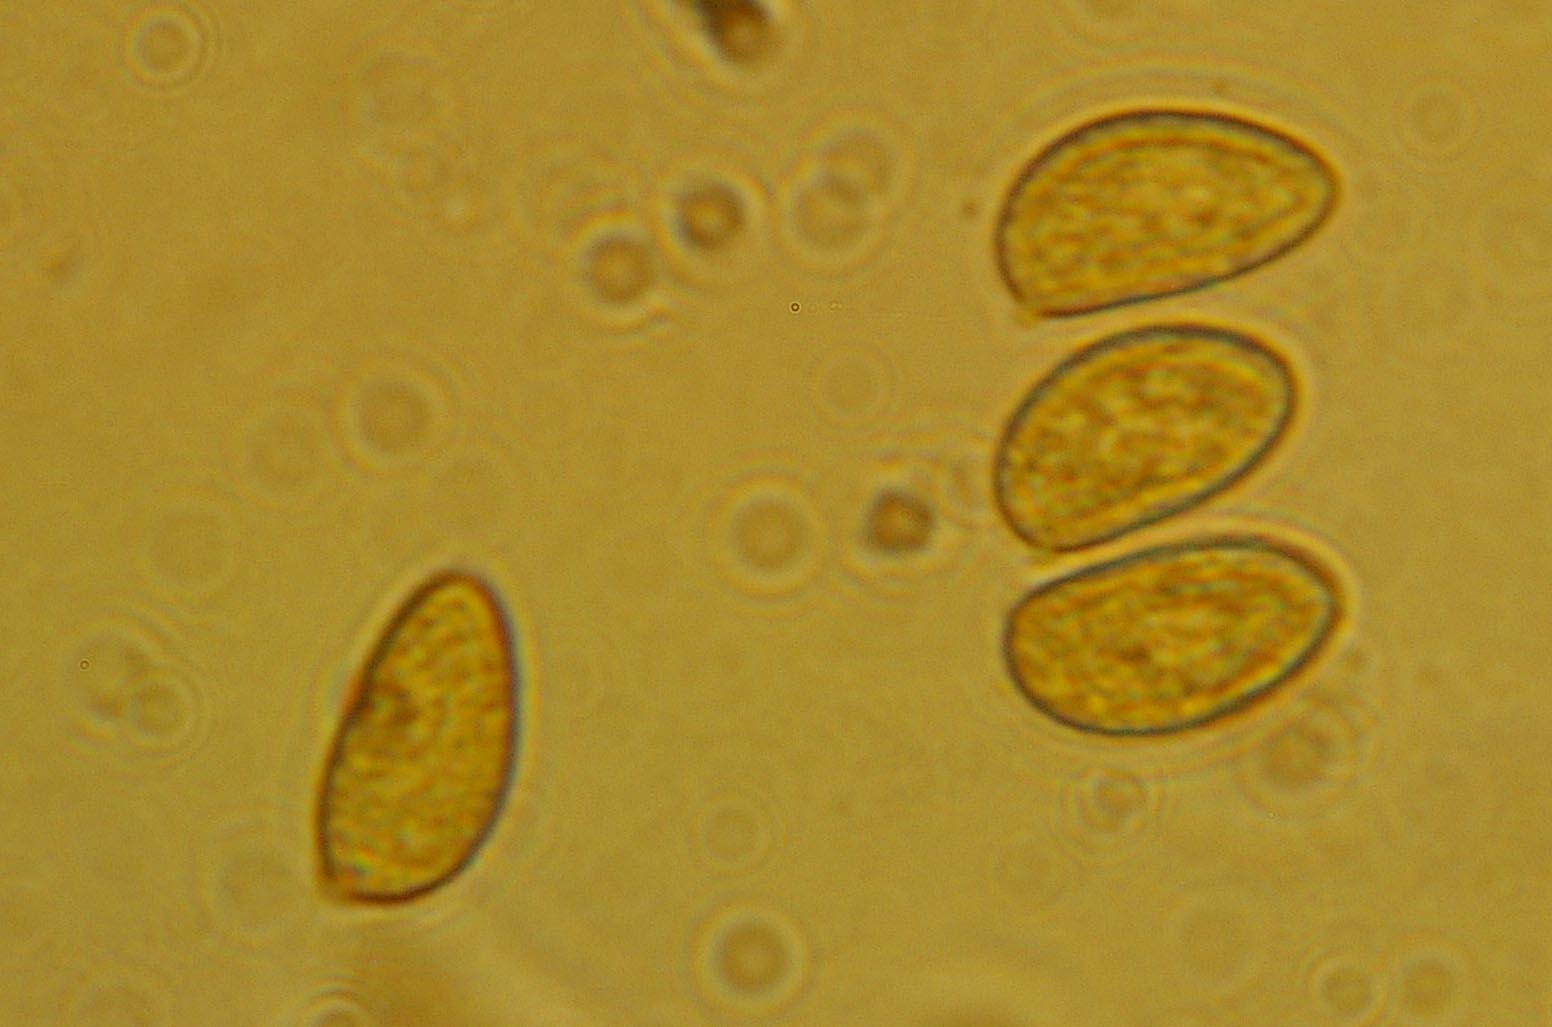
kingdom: Fungi
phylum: Basidiomycota
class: Agaricomycetes
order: Agaricales
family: Hymenogastraceae
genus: Galerina
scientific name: Galerina clavata
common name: kær-hjelmhat
